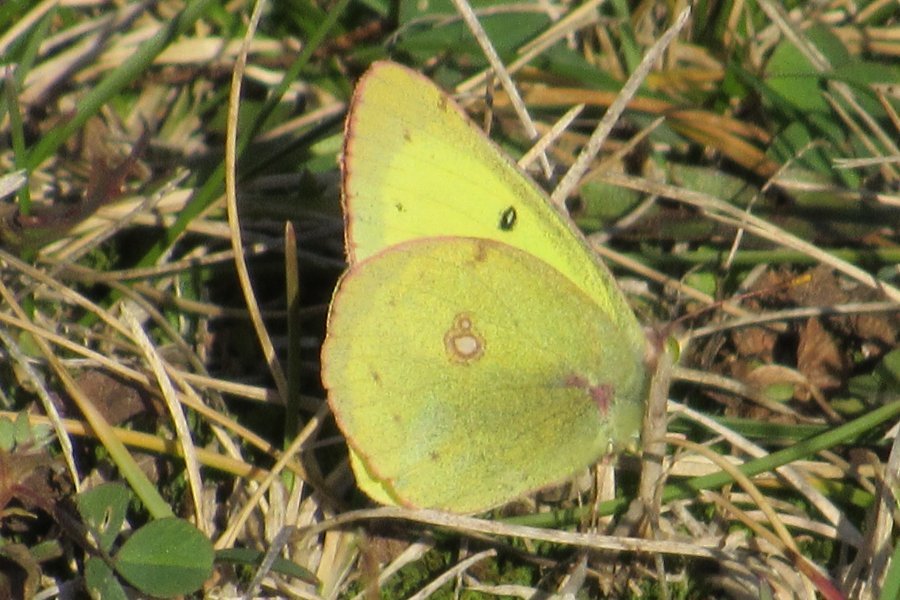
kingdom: Animalia
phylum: Arthropoda
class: Insecta
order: Lepidoptera
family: Pieridae
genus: Colias
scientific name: Colias philodice
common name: Clouded Sulphur
